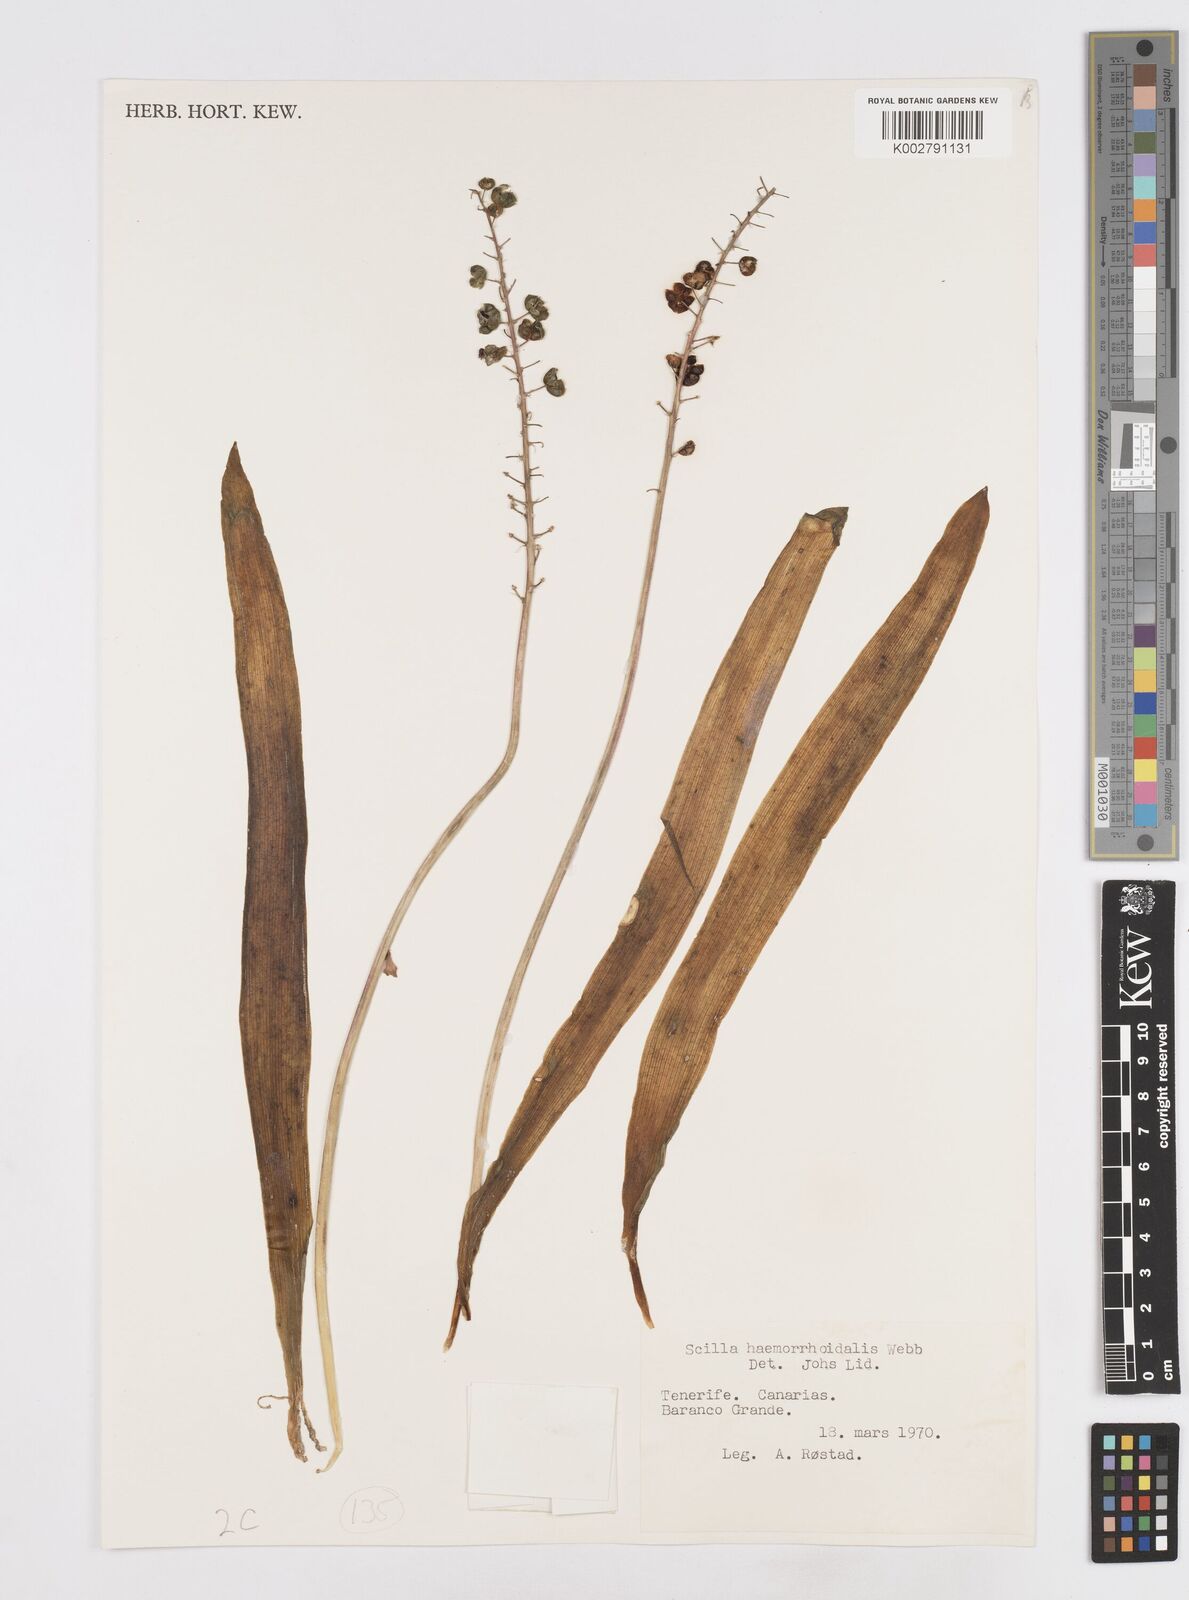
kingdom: Plantae
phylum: Tracheophyta
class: Liliopsida
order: Asparagales
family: Asparagaceae
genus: Scilla
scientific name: Scilla haemorrhoidalis
